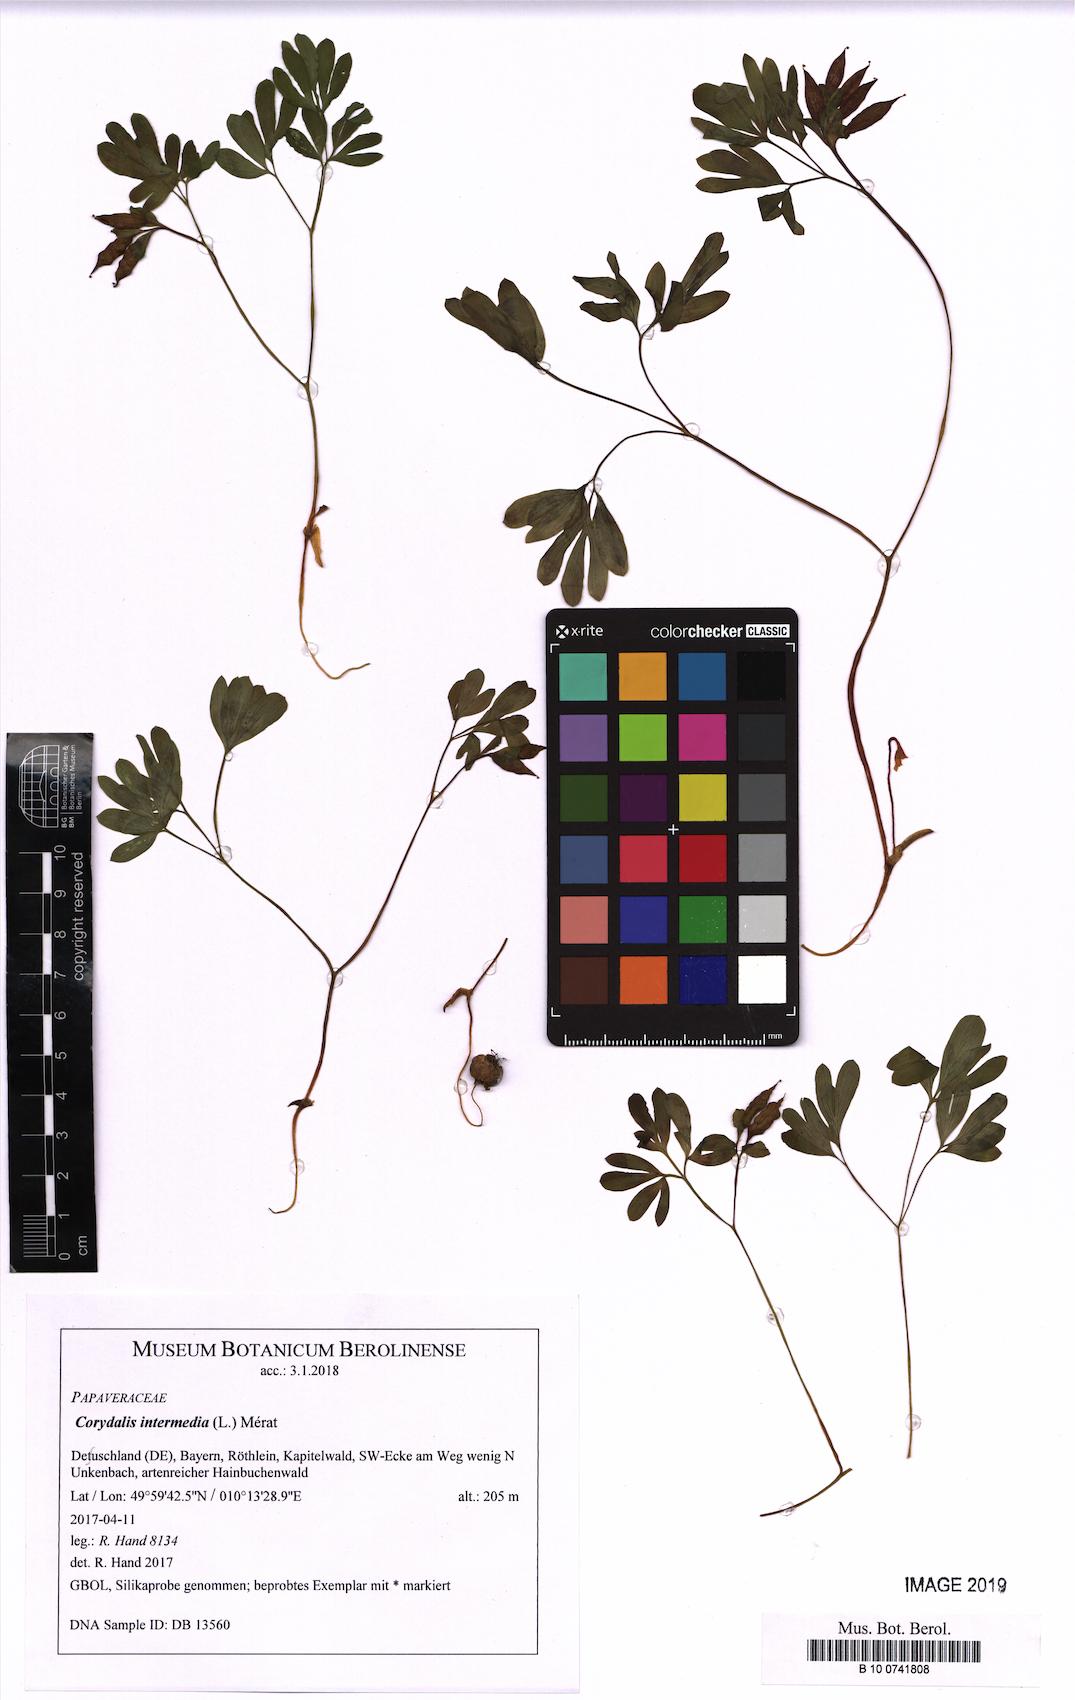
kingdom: Plantae
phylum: Tracheophyta
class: Magnoliopsida
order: Ranunculales
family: Papaveraceae
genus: Corydalis
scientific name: Corydalis intermedia
